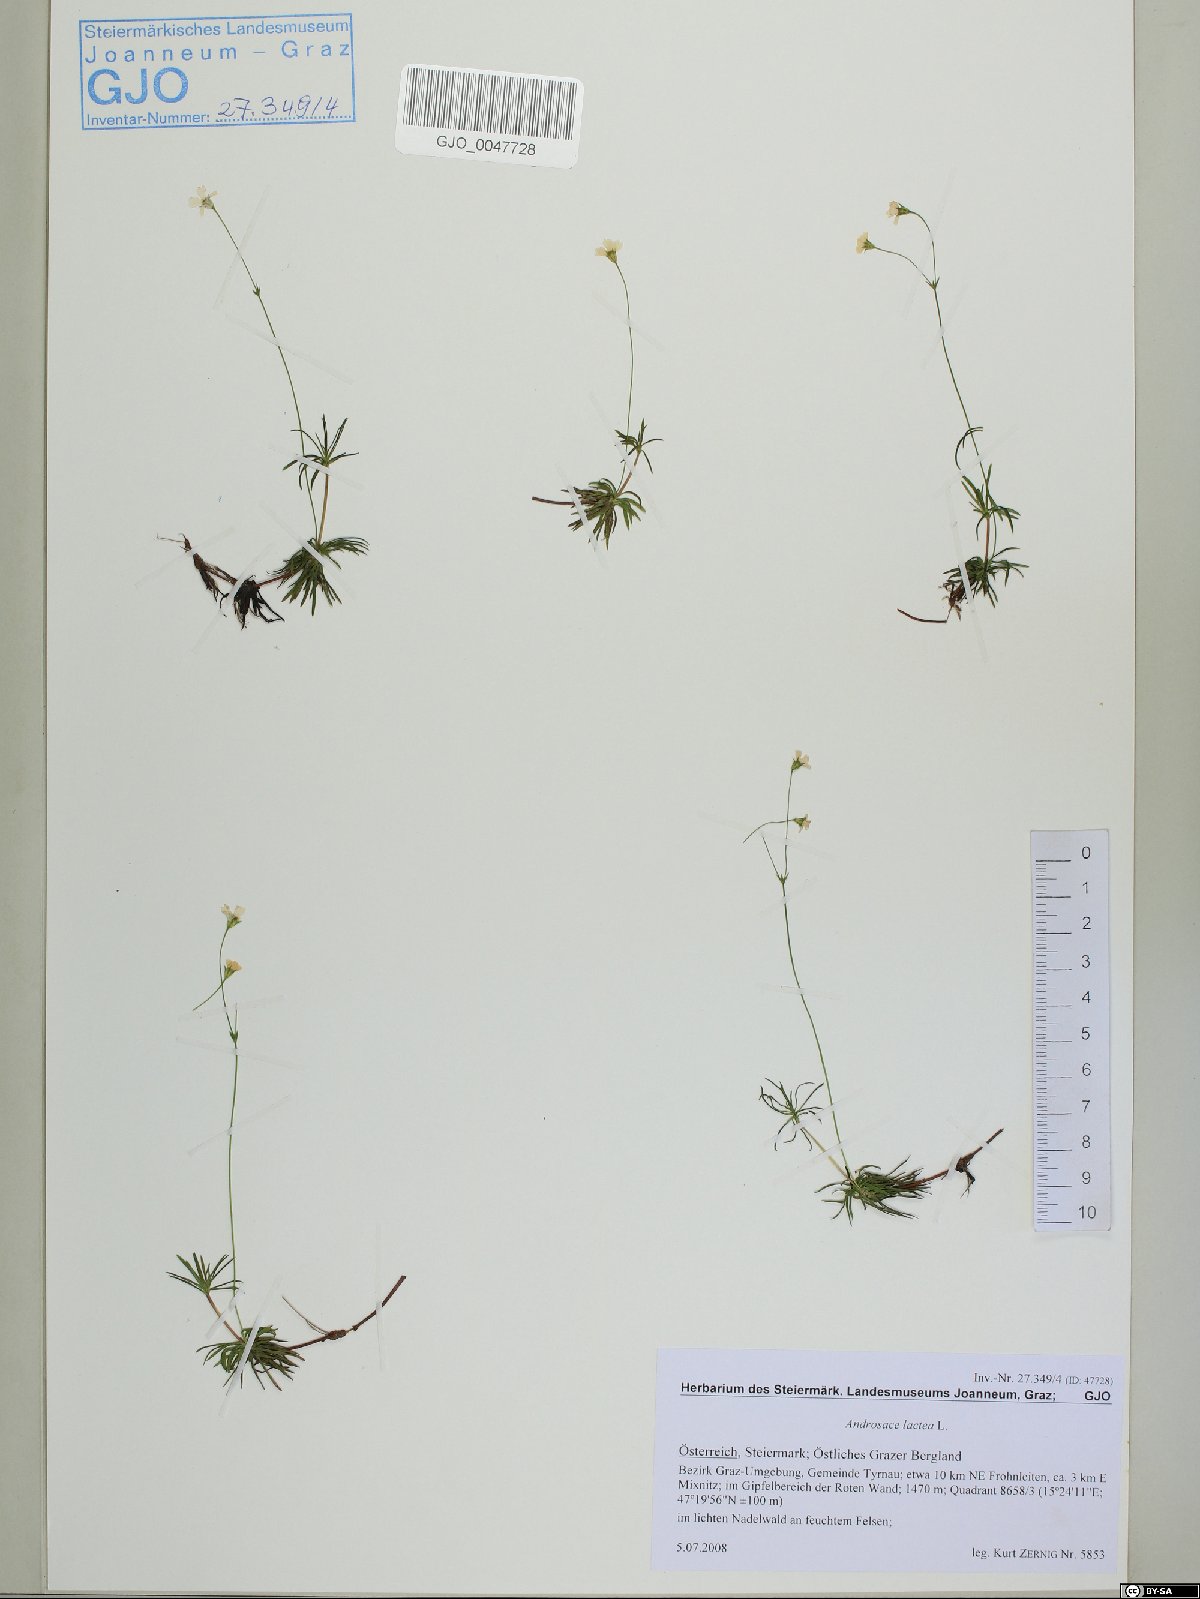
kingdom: Plantae
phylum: Tracheophyta
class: Magnoliopsida
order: Ericales
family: Primulaceae
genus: Androsace
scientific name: Androsace lactea
